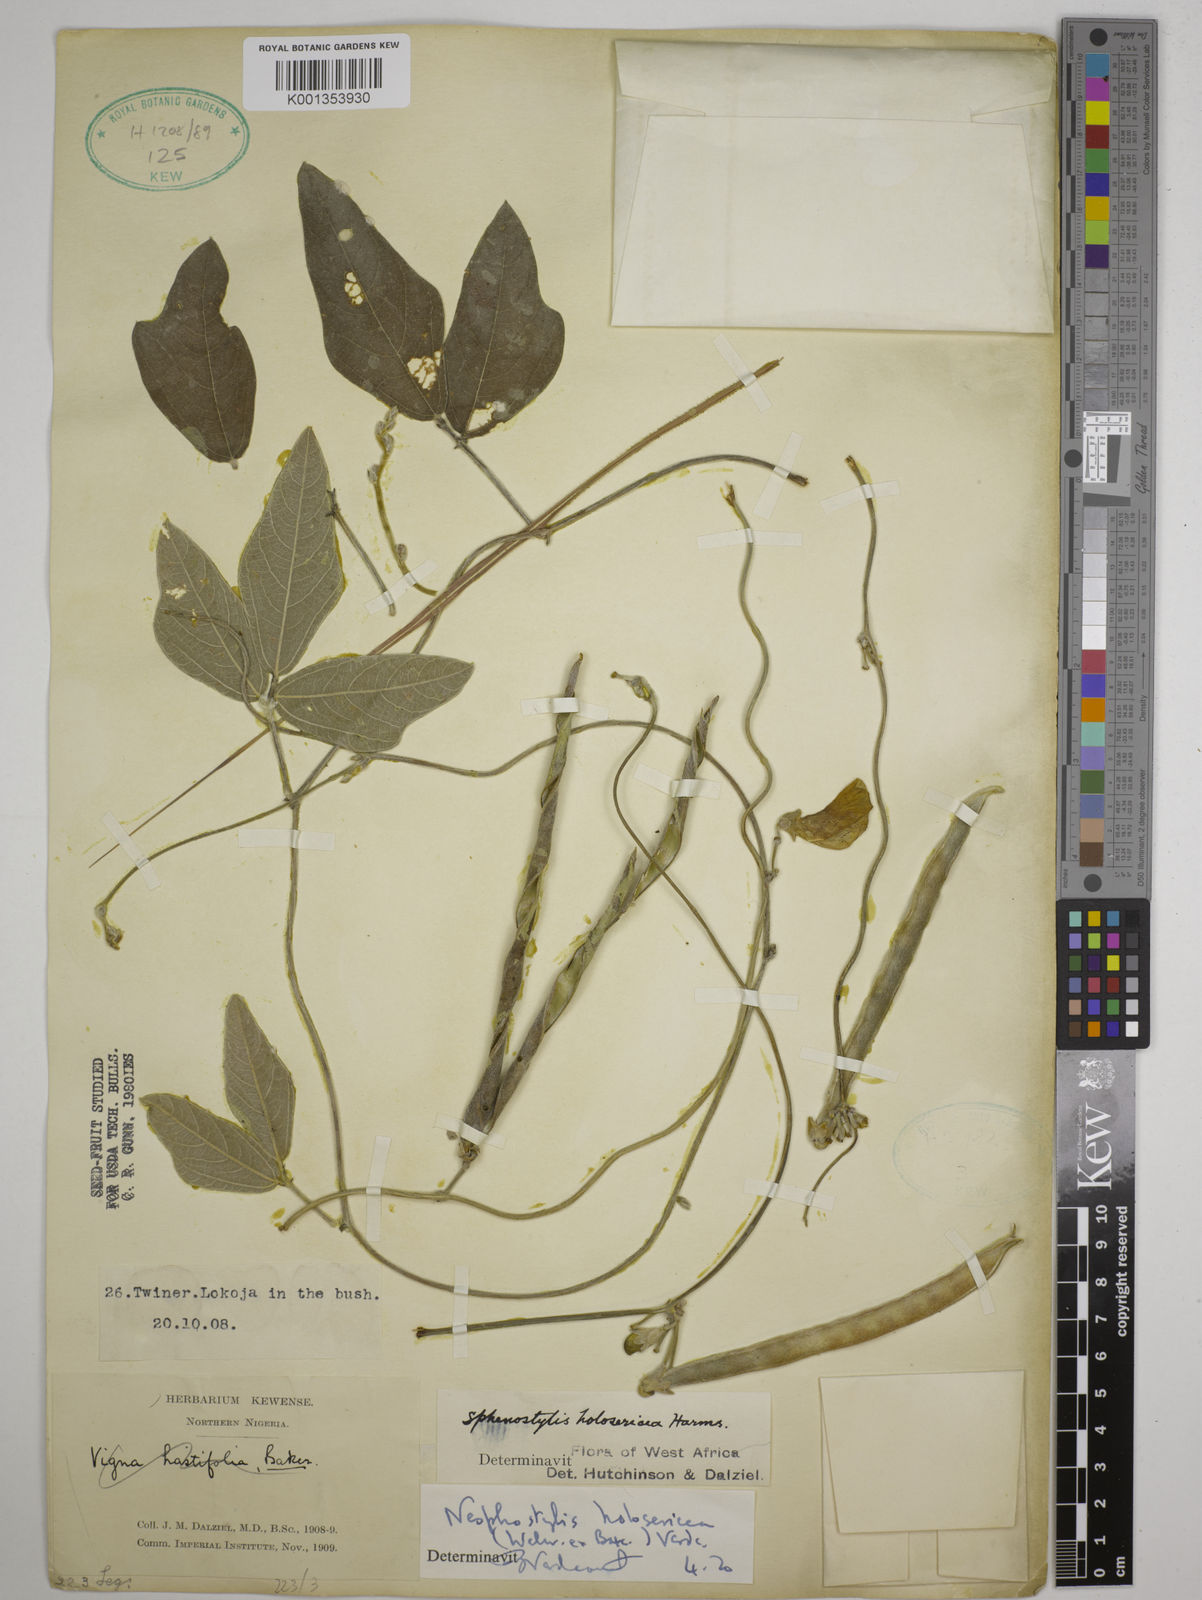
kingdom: Plantae
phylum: Tracheophyta
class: Magnoliopsida
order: Fabales
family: Fabaceae
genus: Nesphostylis
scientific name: Nesphostylis holosericea
